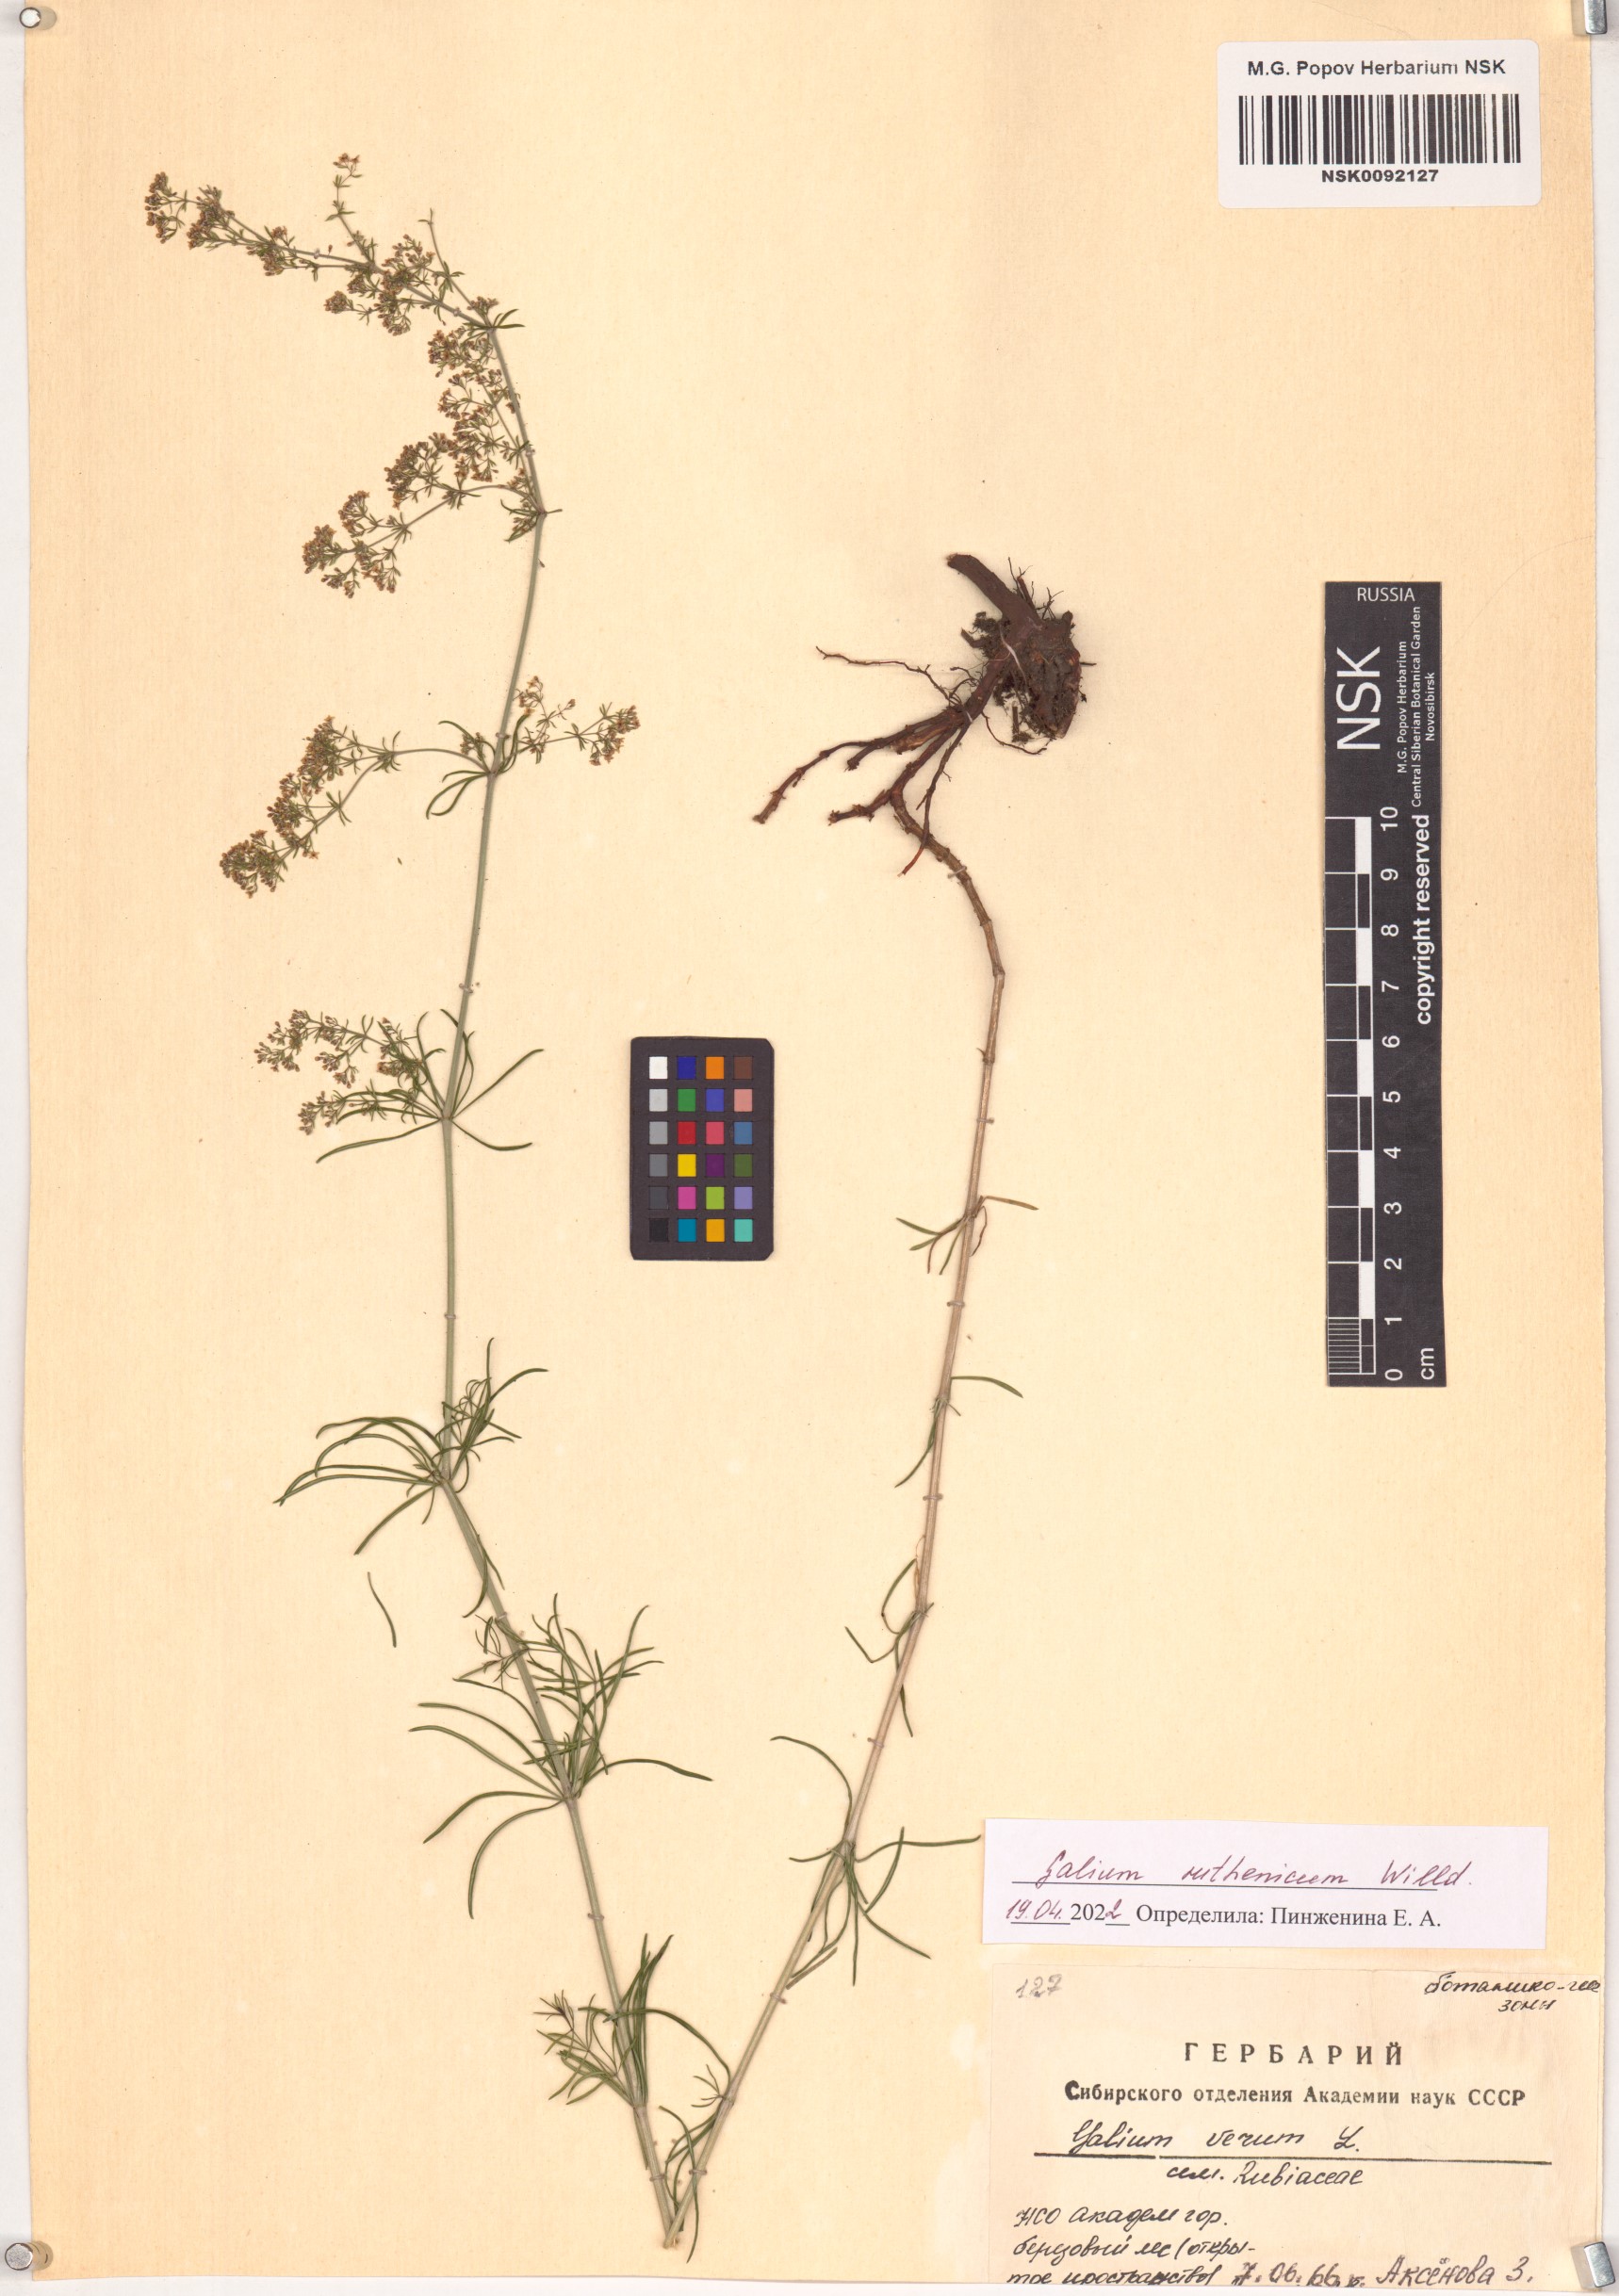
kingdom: Plantae
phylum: Tracheophyta
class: Magnoliopsida
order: Gentianales
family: Rubiaceae
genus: Galium
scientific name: Galium verum
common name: Lady's bedstraw
